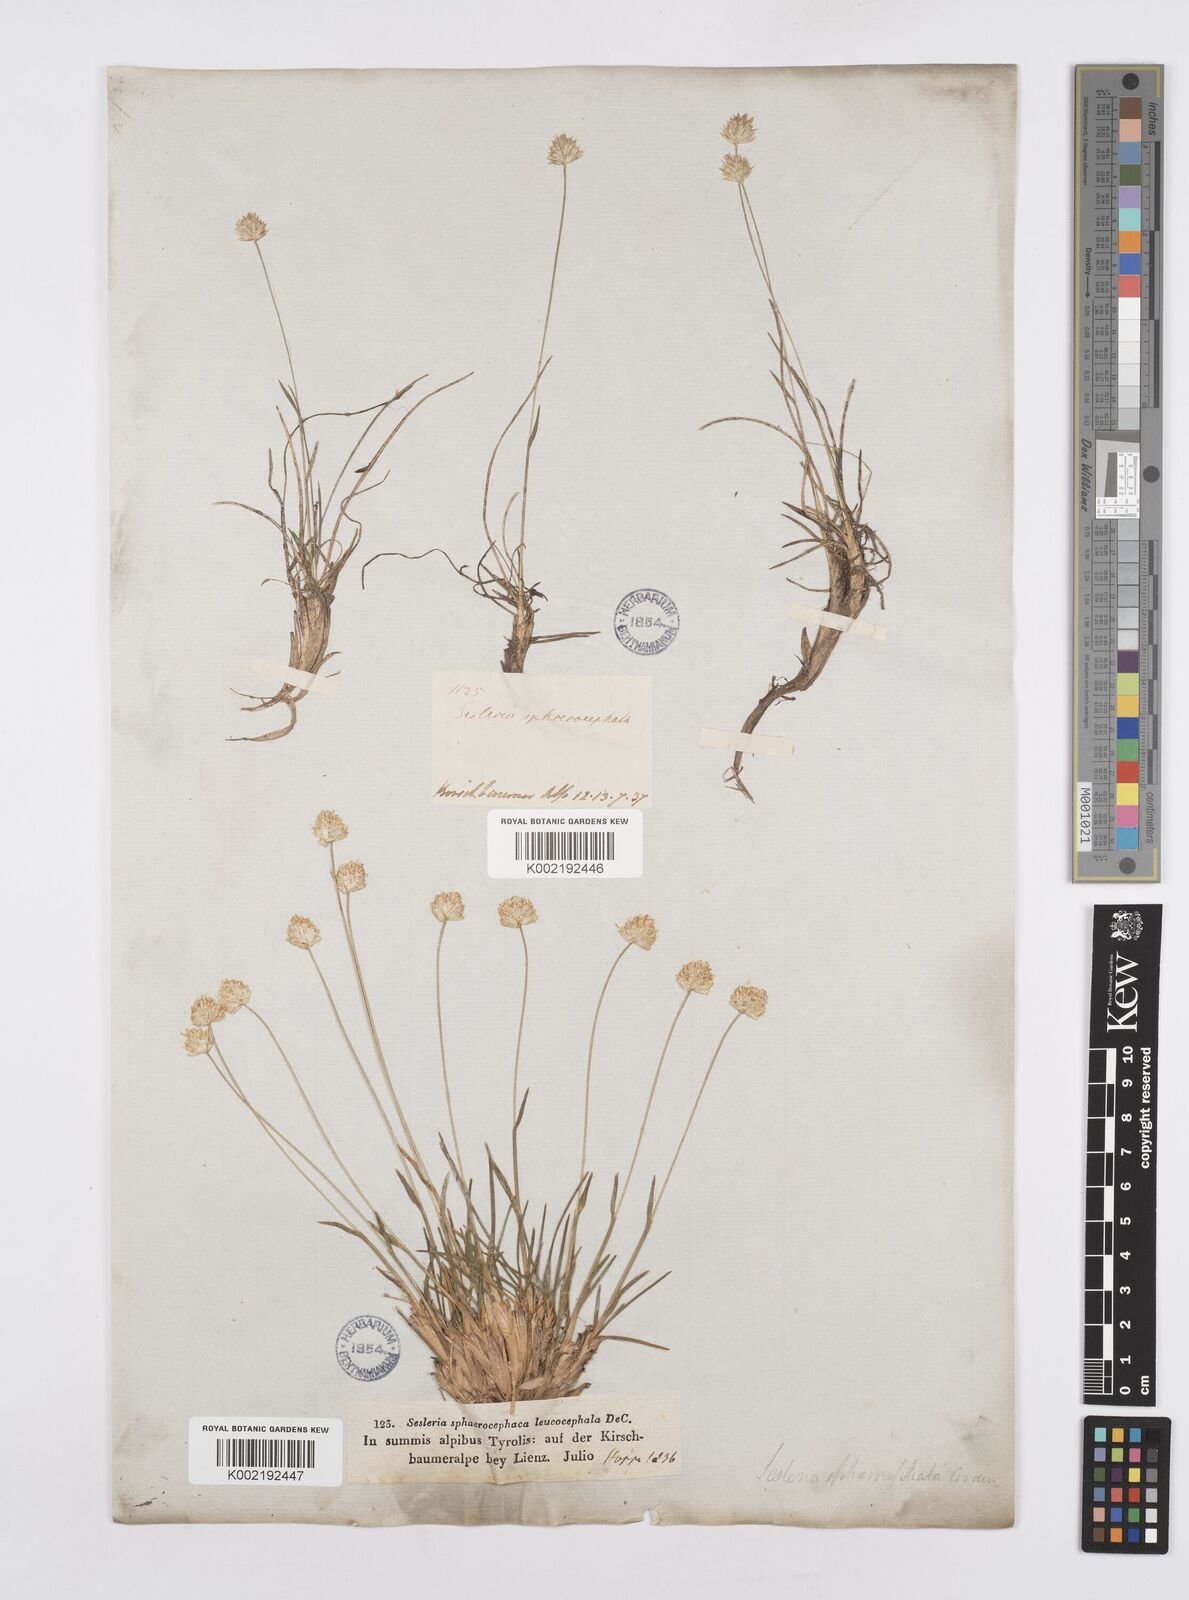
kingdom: Plantae
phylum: Tracheophyta
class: Liliopsida
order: Poales
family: Poaceae
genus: Sesleriella
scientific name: Sesleriella sphaerocephala
